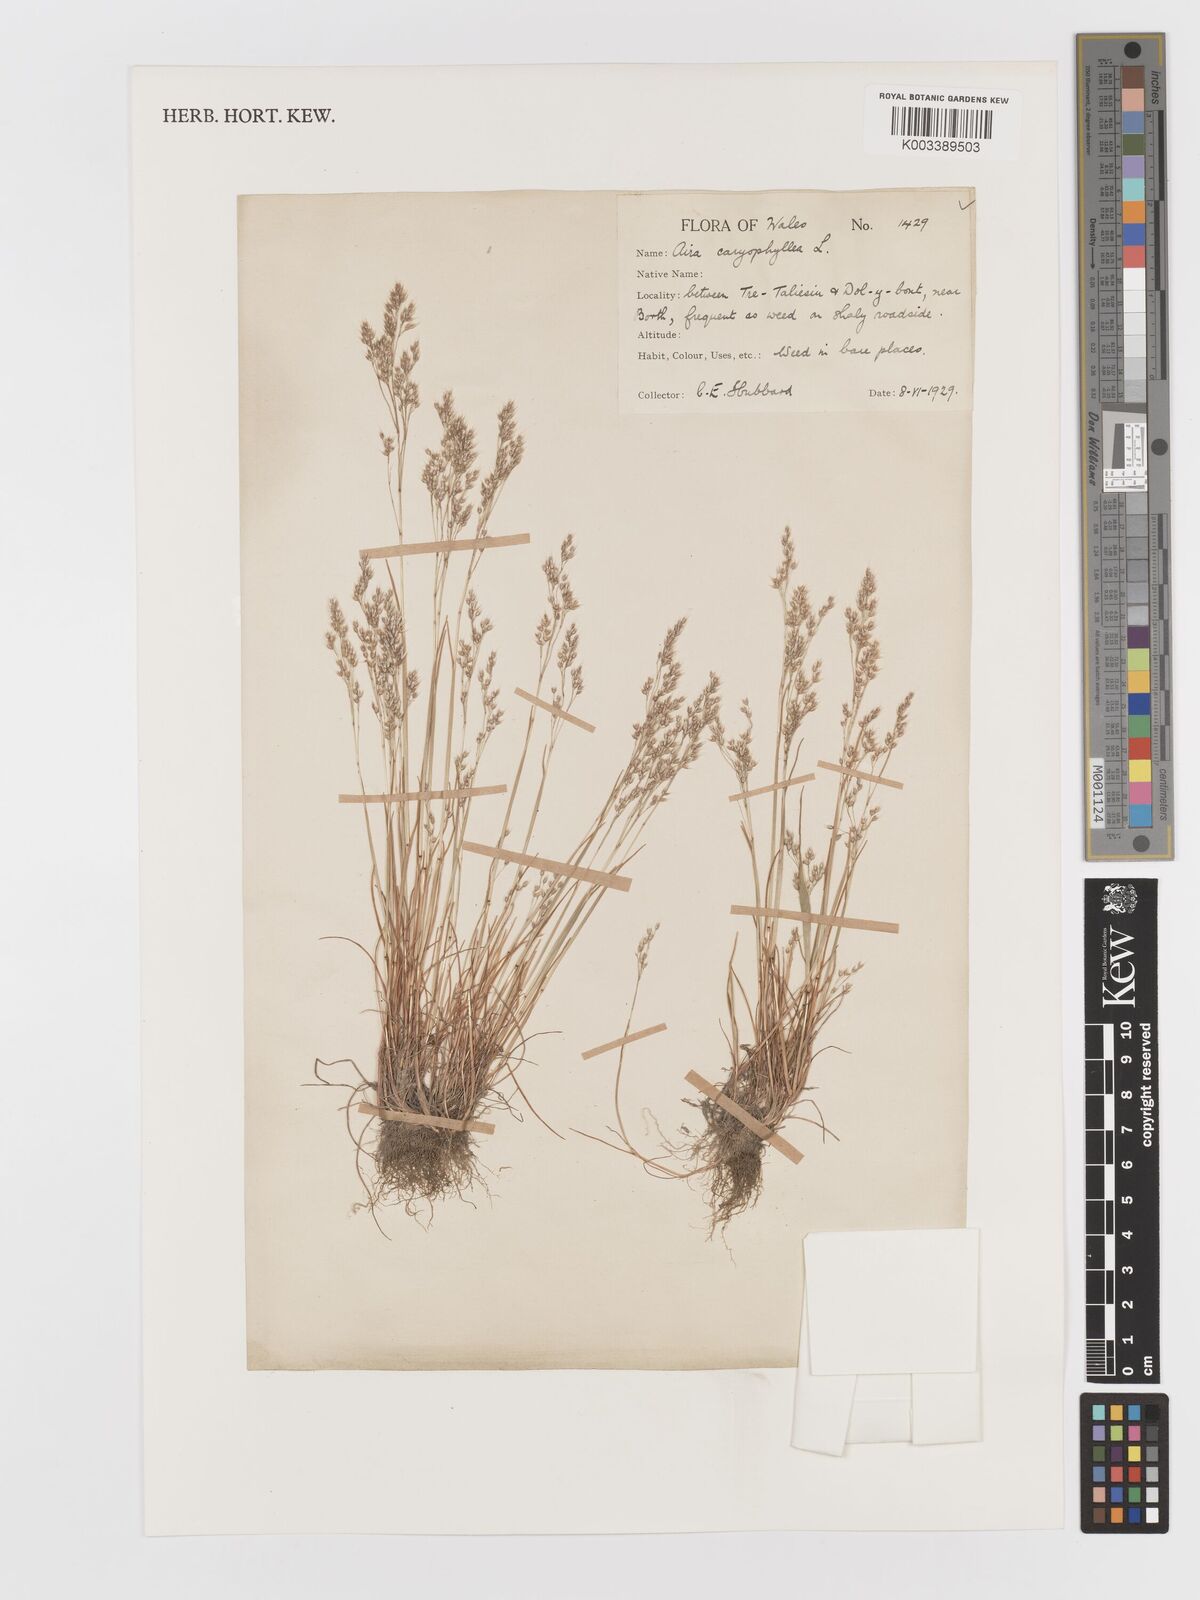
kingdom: Plantae
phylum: Tracheophyta
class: Liliopsida
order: Poales
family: Poaceae
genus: Aira
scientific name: Aira caryophyllea
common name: Silver hairgrass
